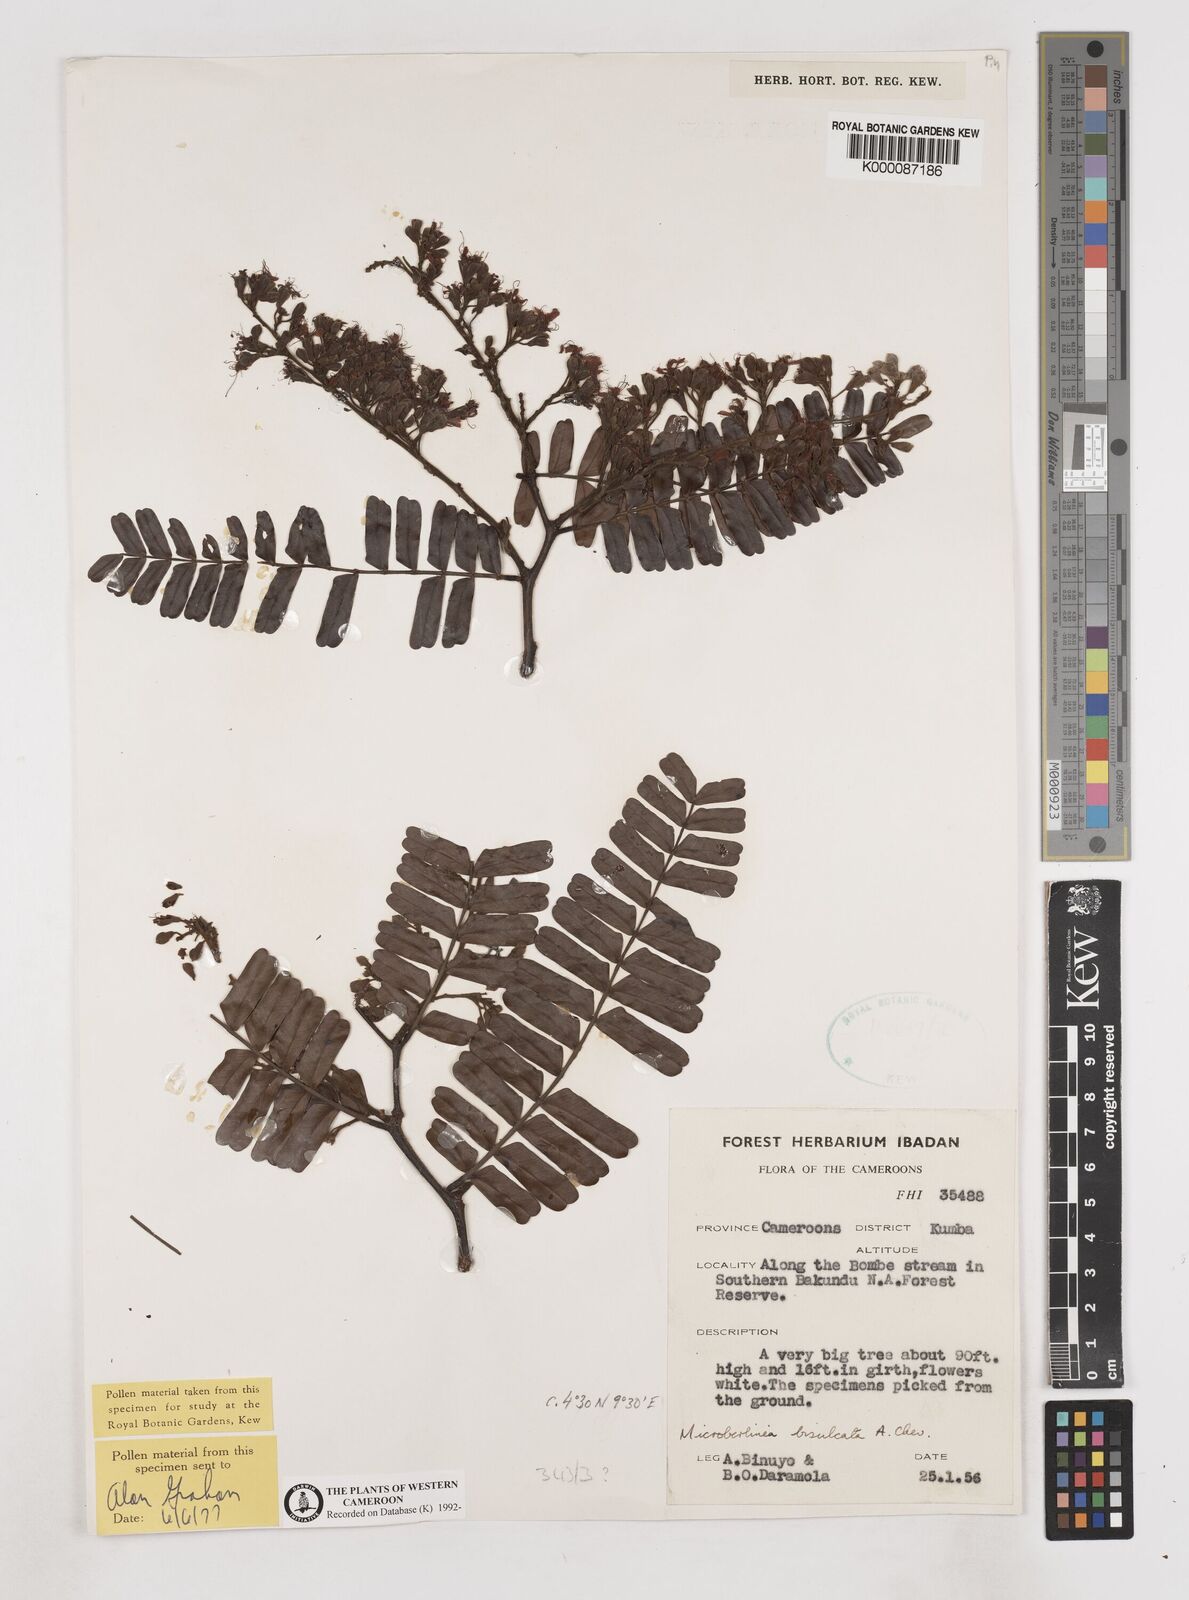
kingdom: Plantae
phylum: Tracheophyta
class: Magnoliopsida
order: Fabales
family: Fabaceae
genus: Microberlinia
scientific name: Microberlinia bisulcata
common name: Zingana
